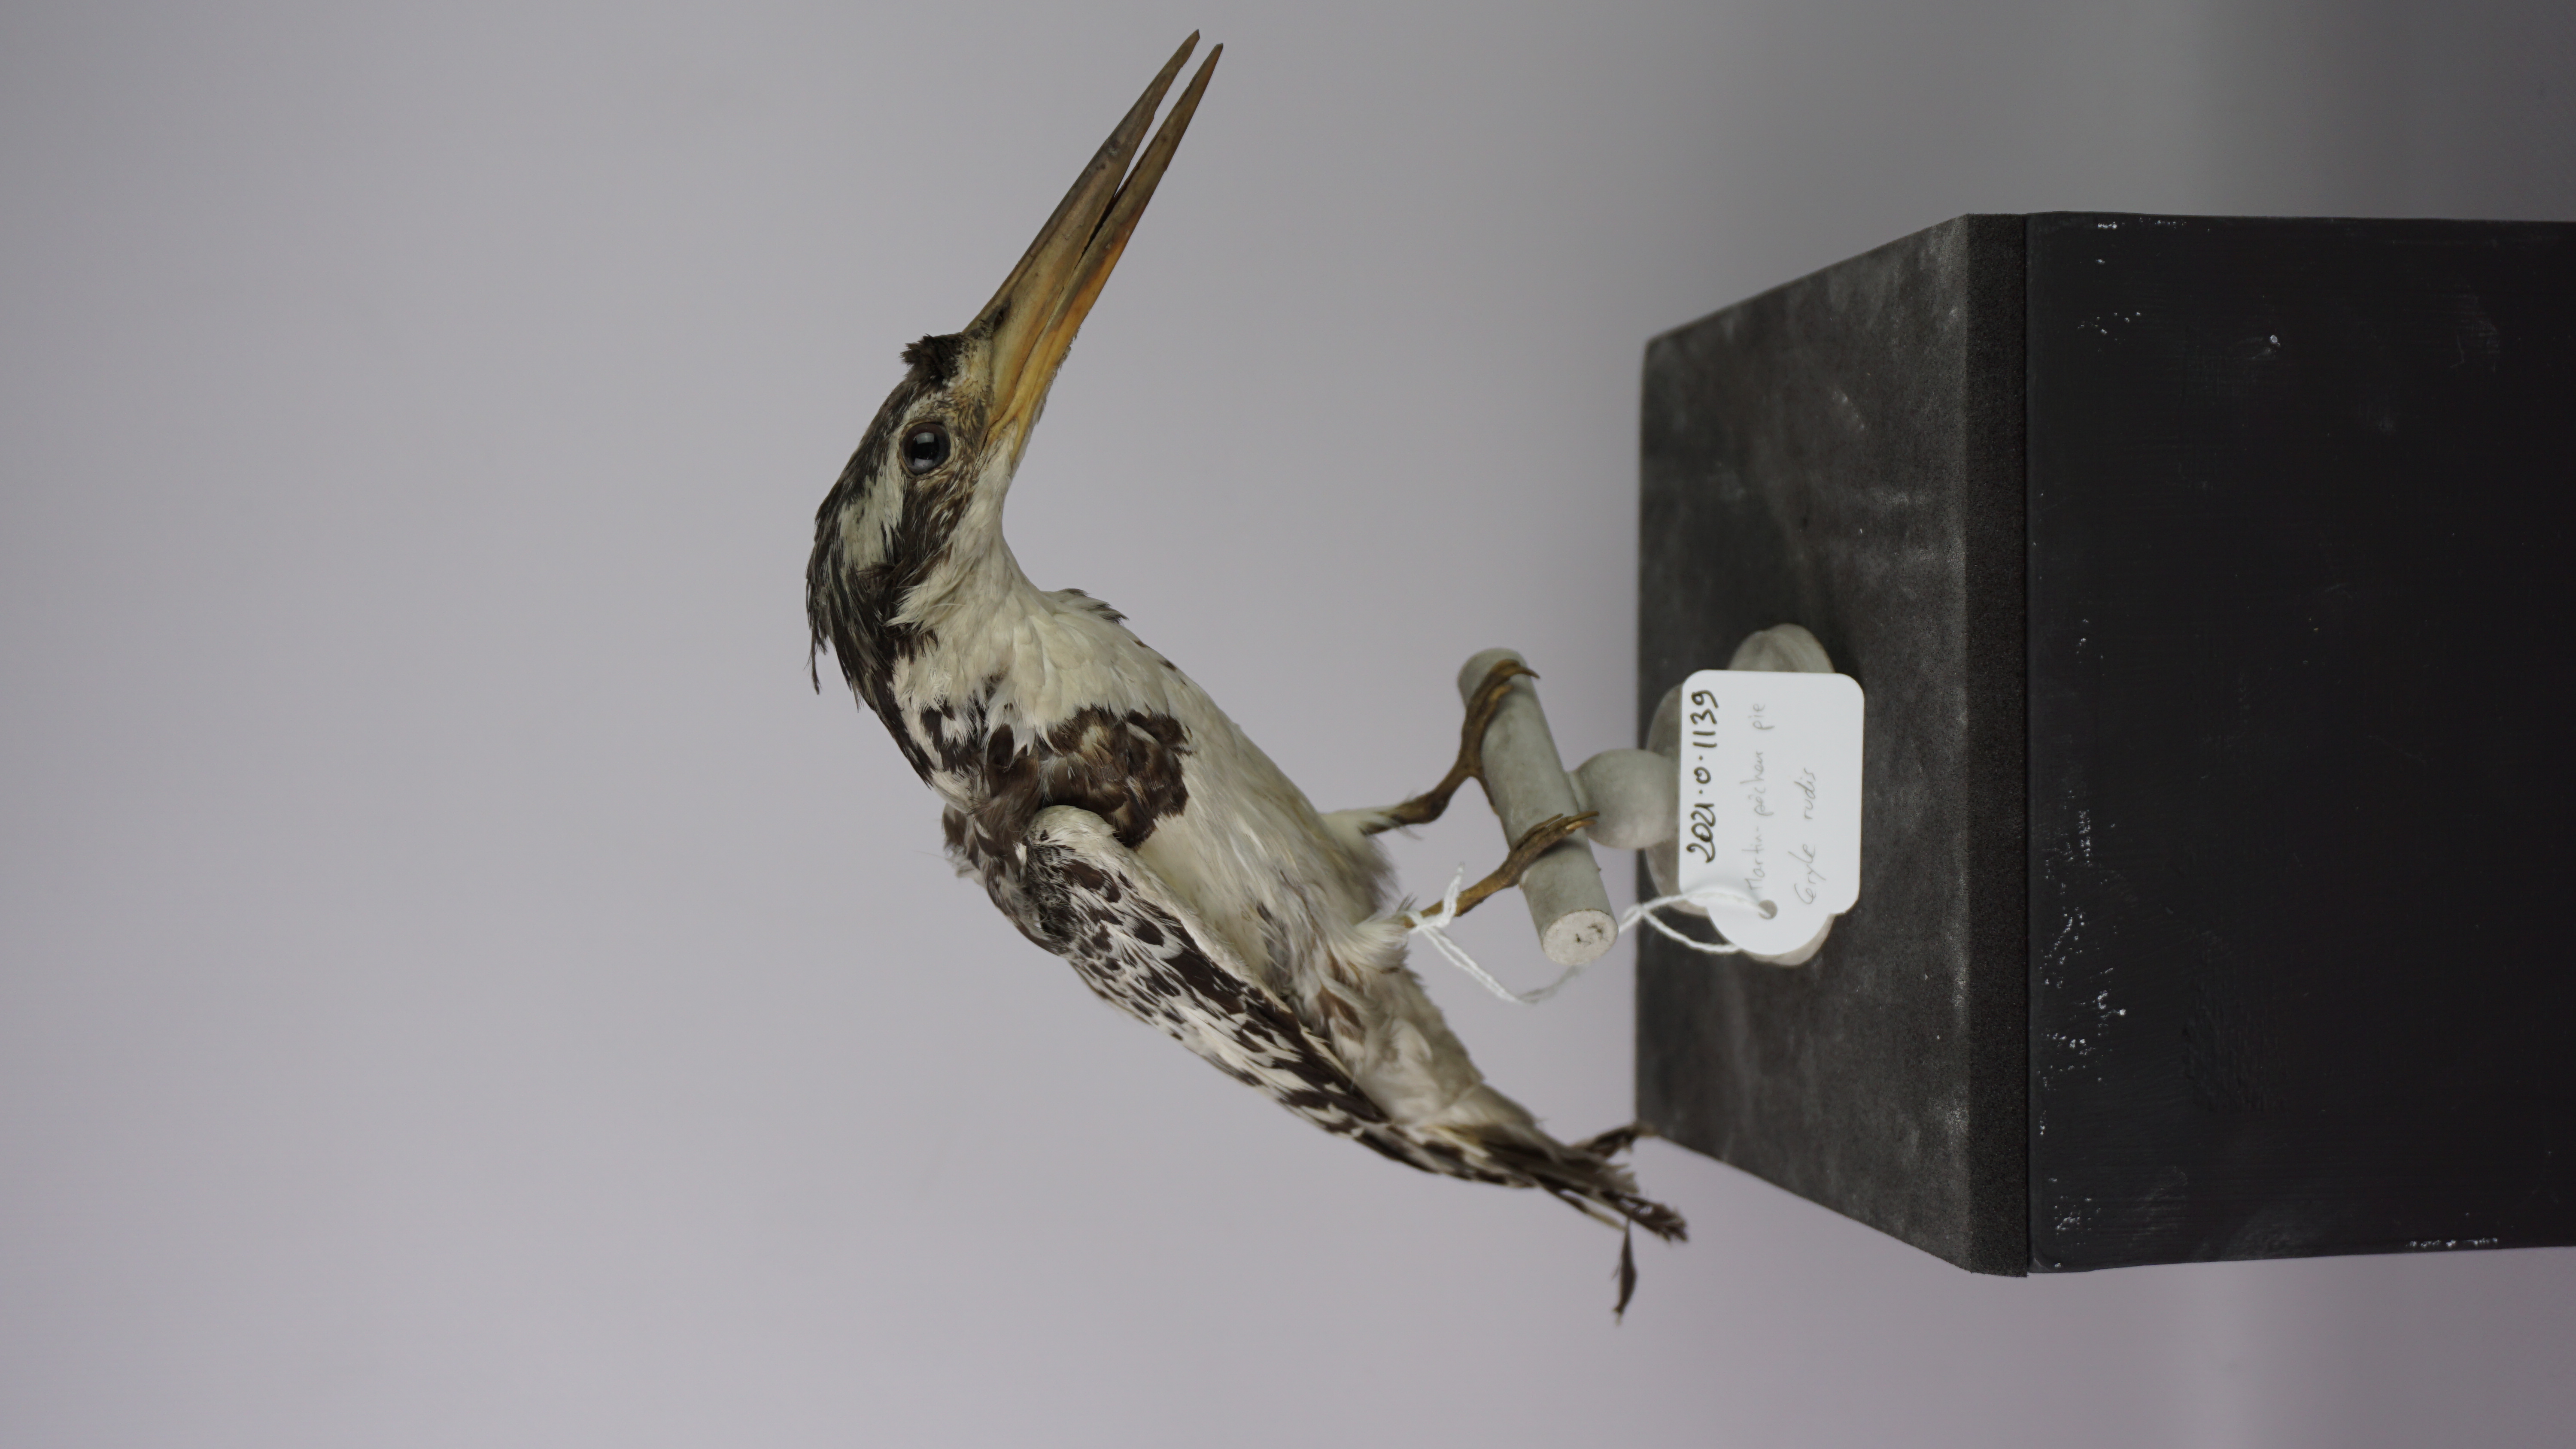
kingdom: Animalia
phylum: Chordata
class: Aves
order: Coraciiformes
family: Alcedinidae
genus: Ceryle
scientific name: Ceryle rudis
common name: Pied kingfisher
